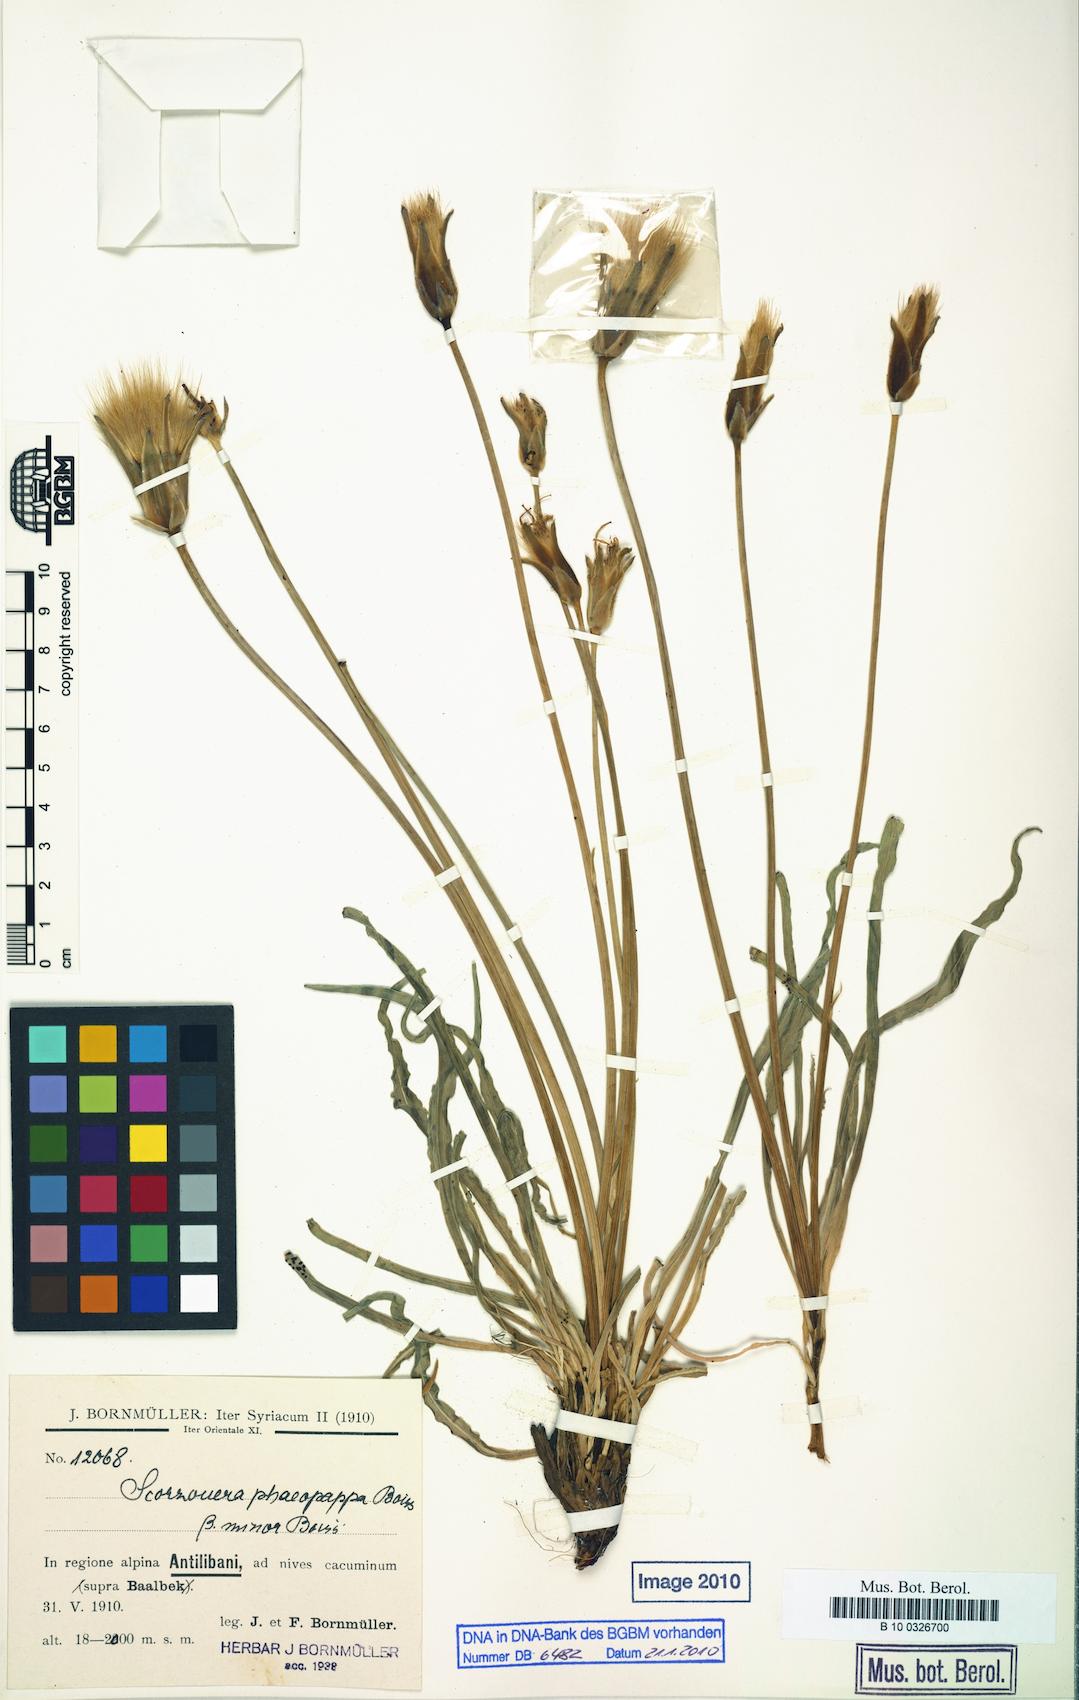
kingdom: Plantae
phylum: Tracheophyta
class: Magnoliopsida
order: Asterales
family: Asteraceae
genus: Pseudopodospermum
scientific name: Pseudopodospermum phaeopappum
